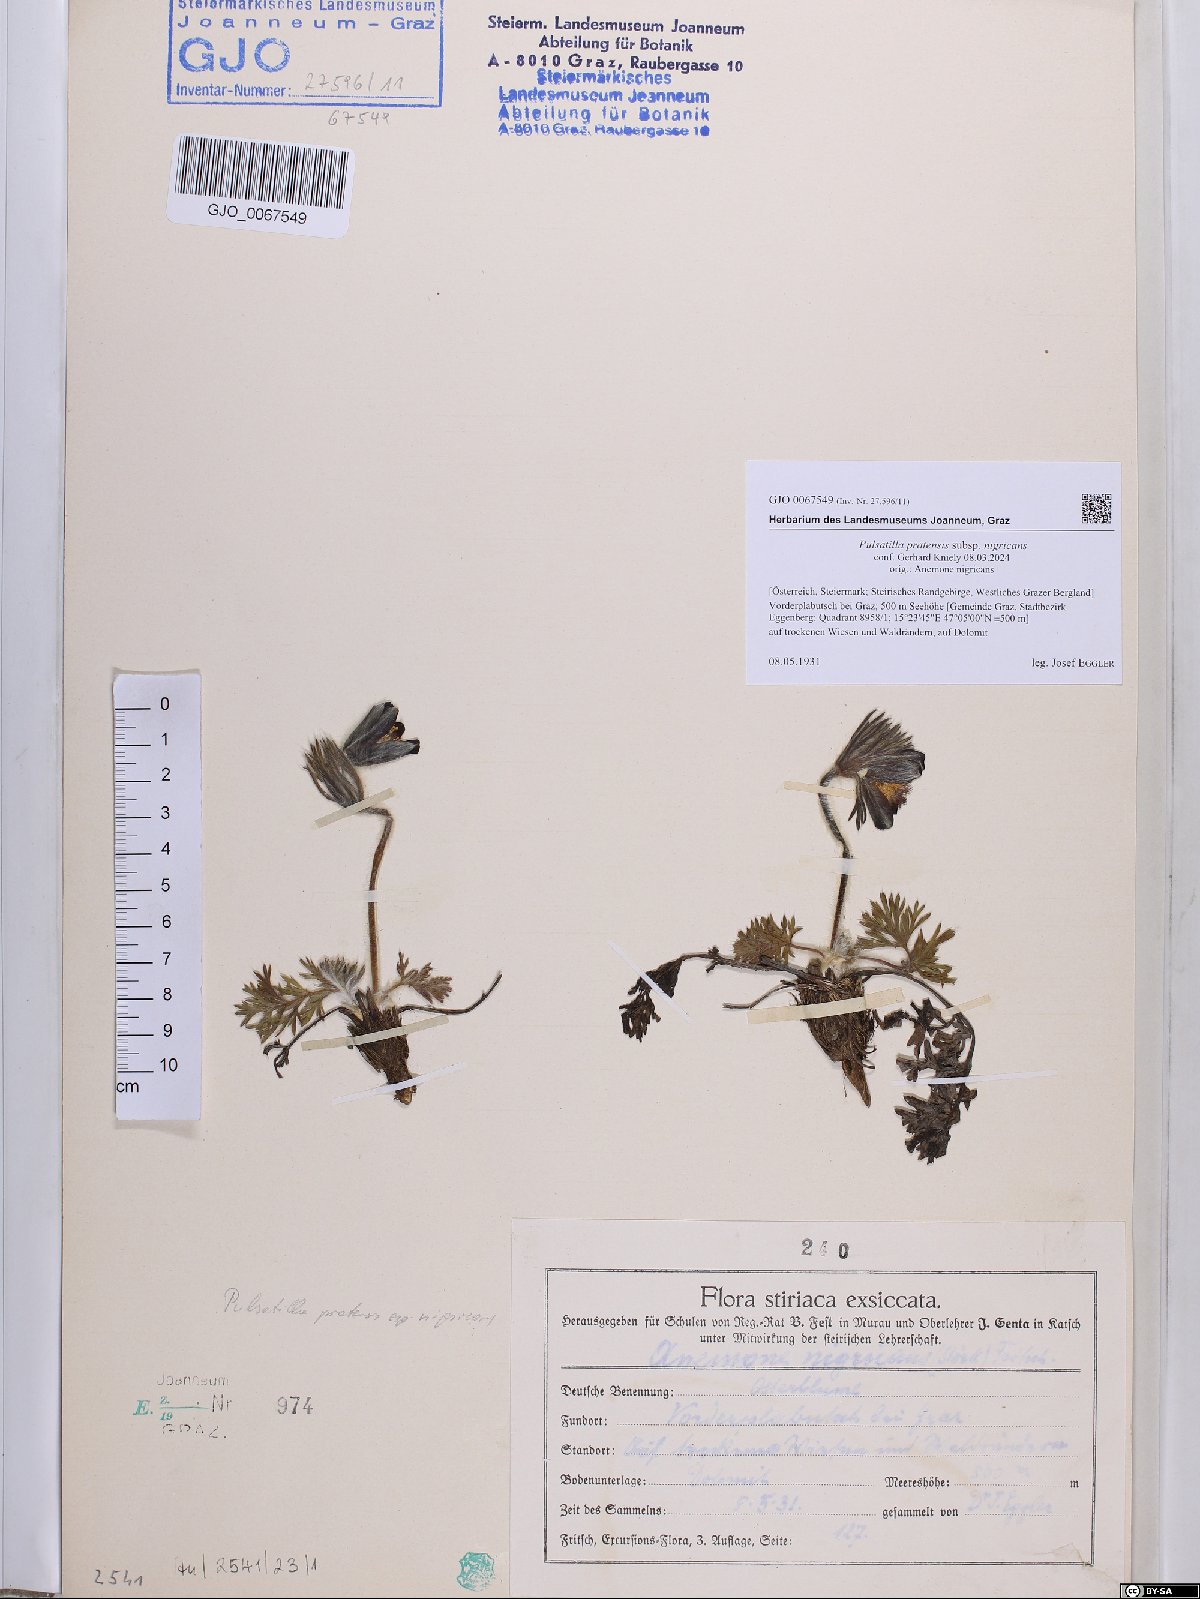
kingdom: Plantae
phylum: Tracheophyta
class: Magnoliopsida
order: Ranunculales
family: Ranunculaceae
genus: Pulsatilla
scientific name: Pulsatilla pratensis
